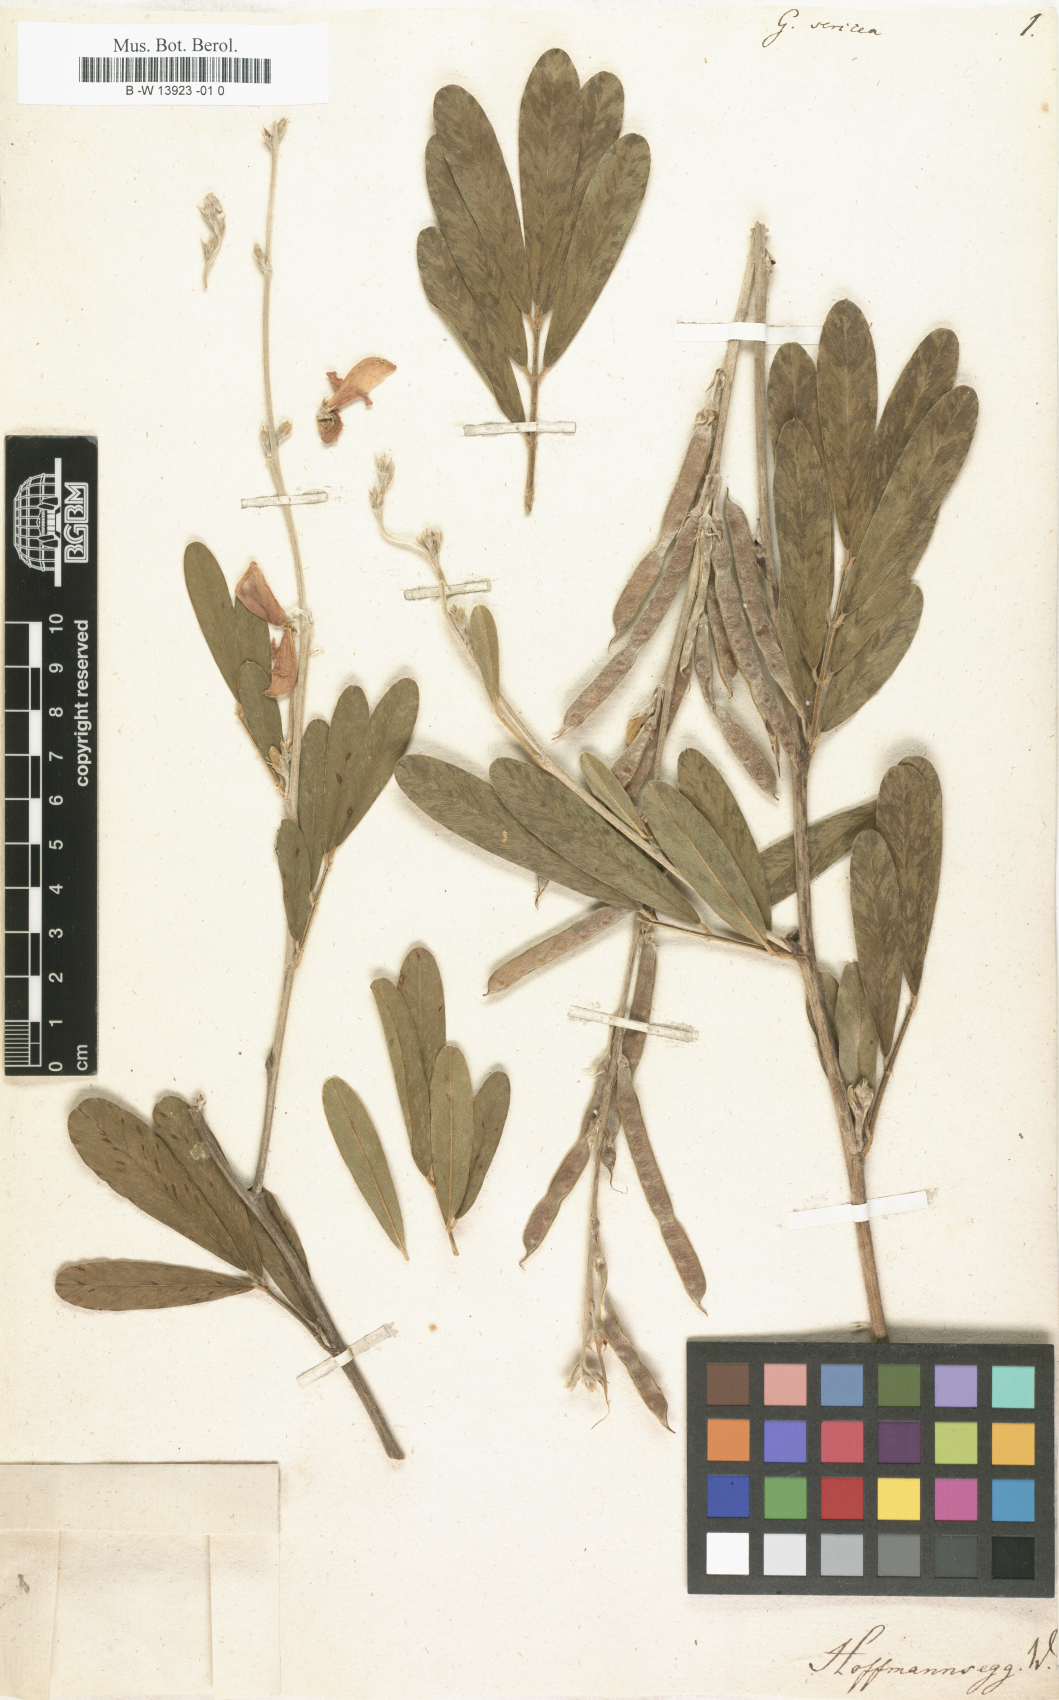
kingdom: Plantae
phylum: Tracheophyta
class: Magnoliopsida
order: Fabales
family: Fabaceae
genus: Tephrosia
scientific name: Tephrosia sinapou
